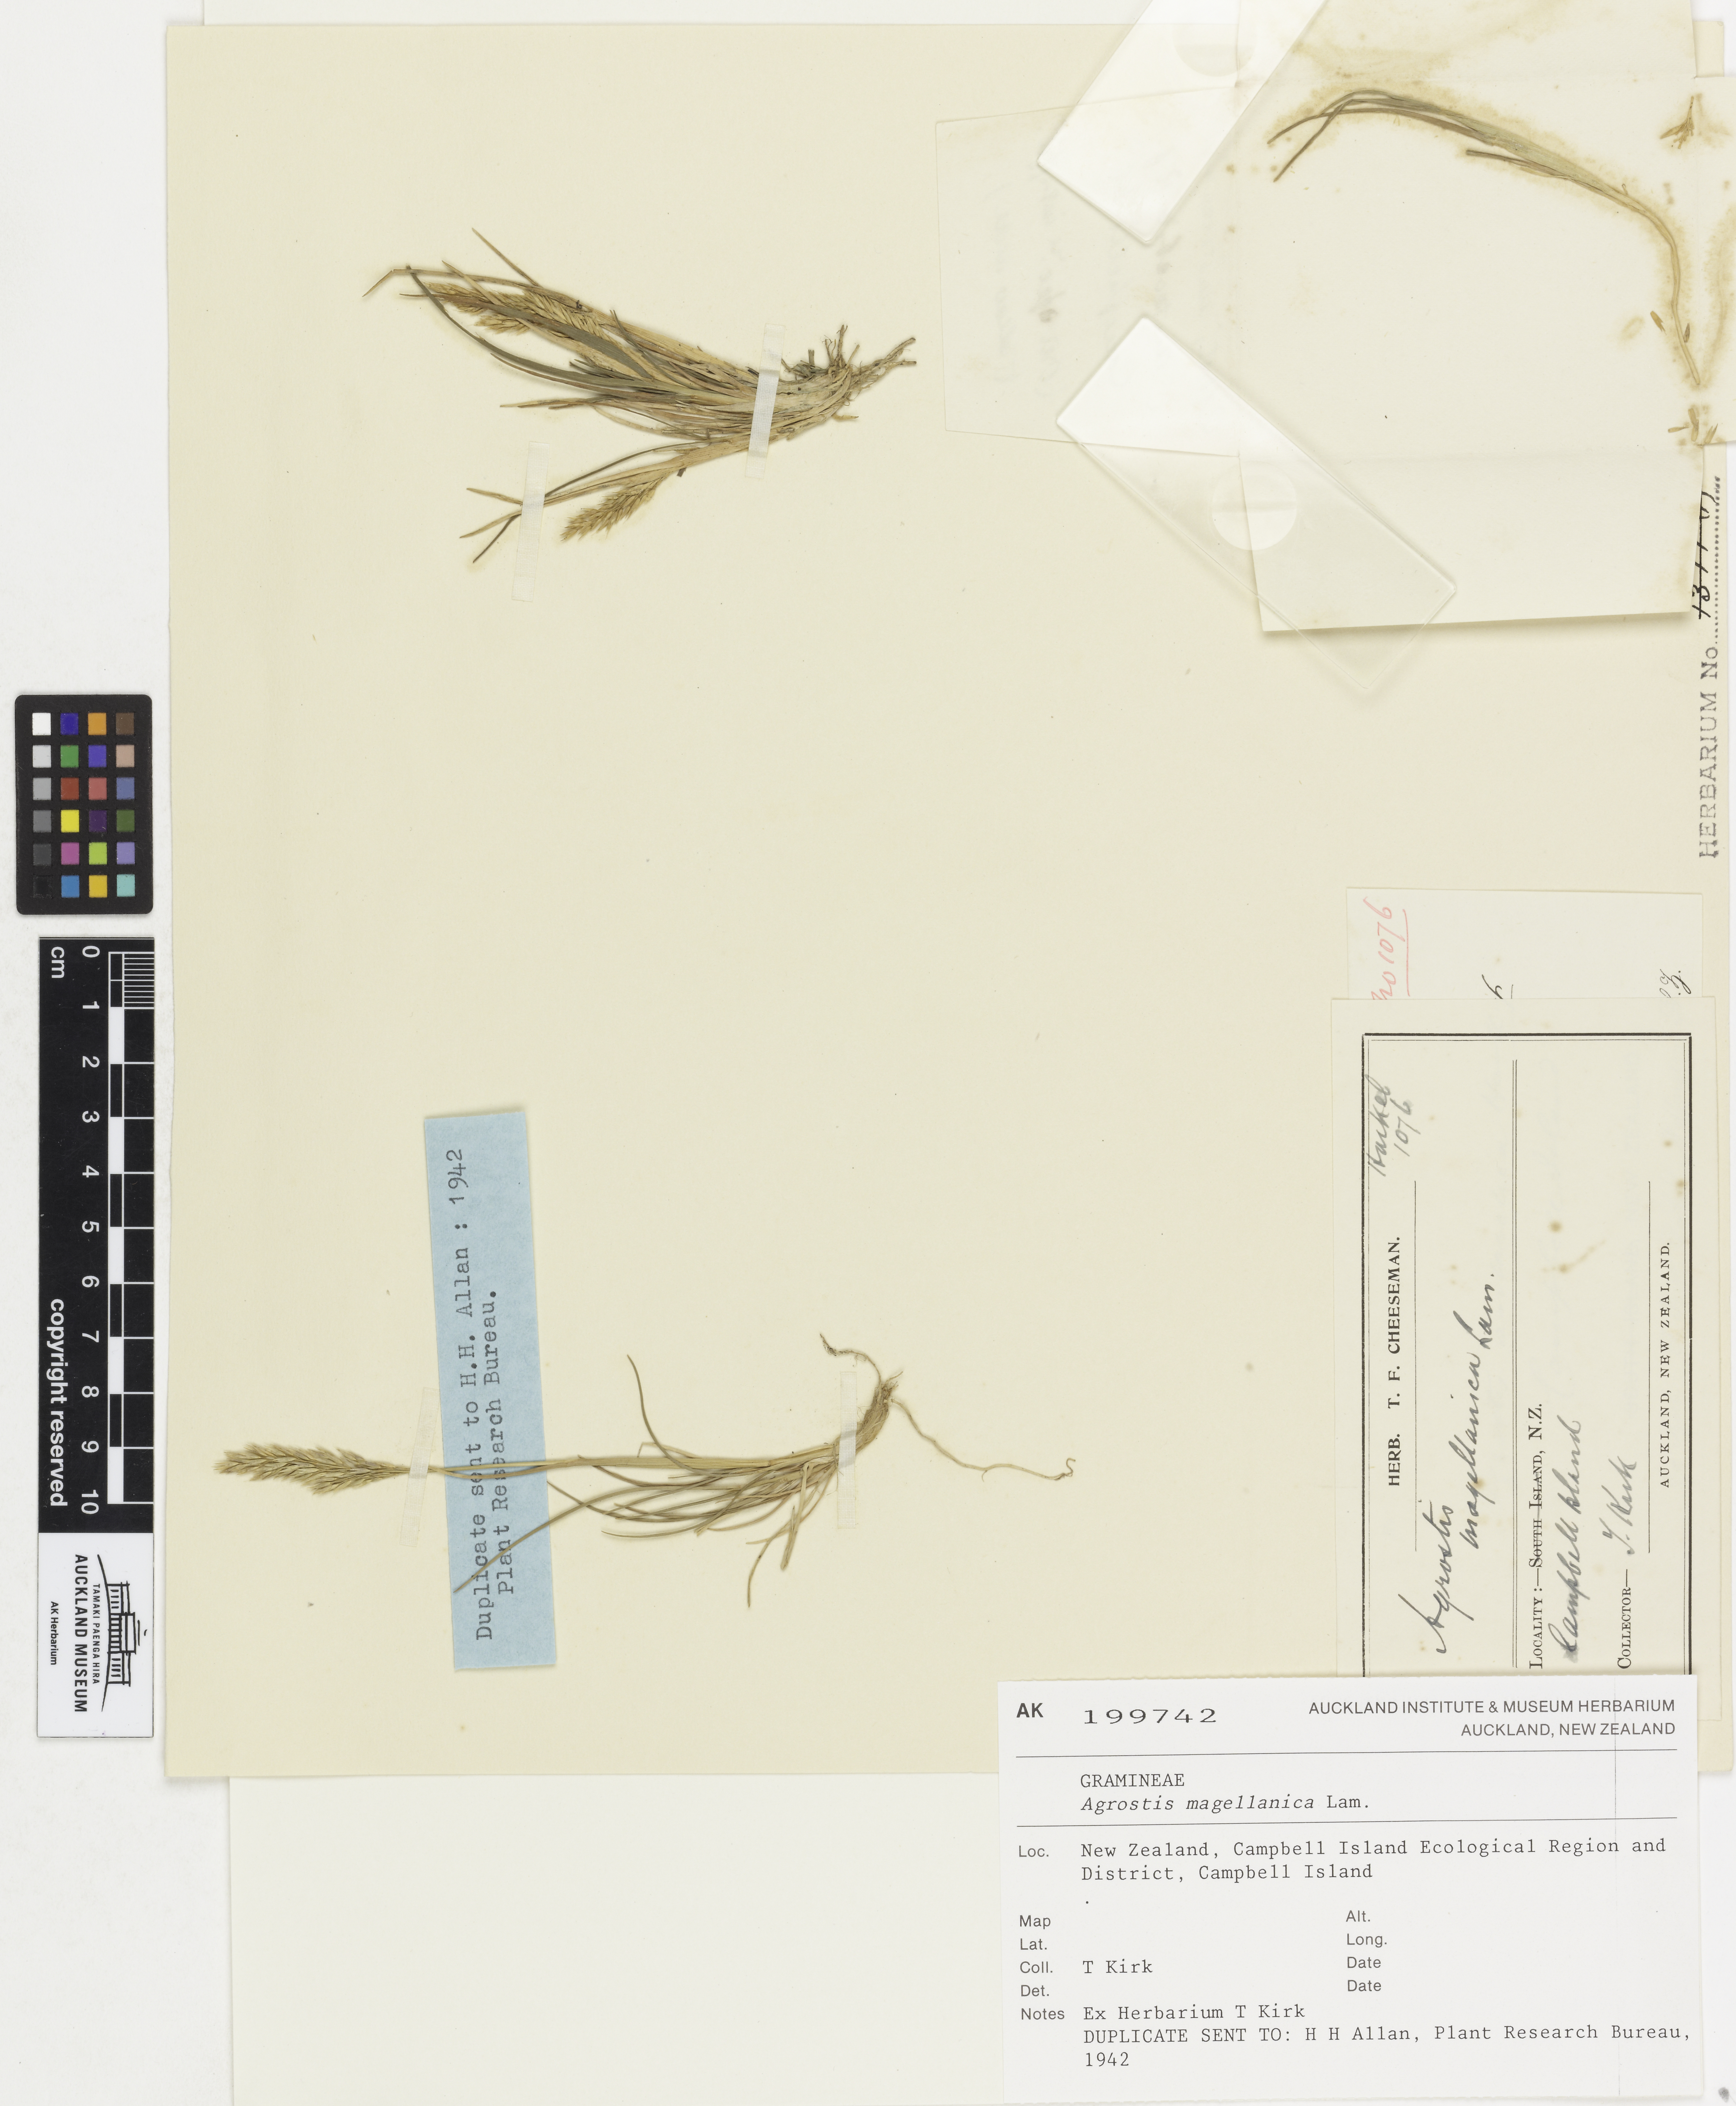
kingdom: Plantae
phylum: Tracheophyta
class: Liliopsida
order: Poales
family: Poaceae
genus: Polypogon
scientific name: Polypogon magellanicus
